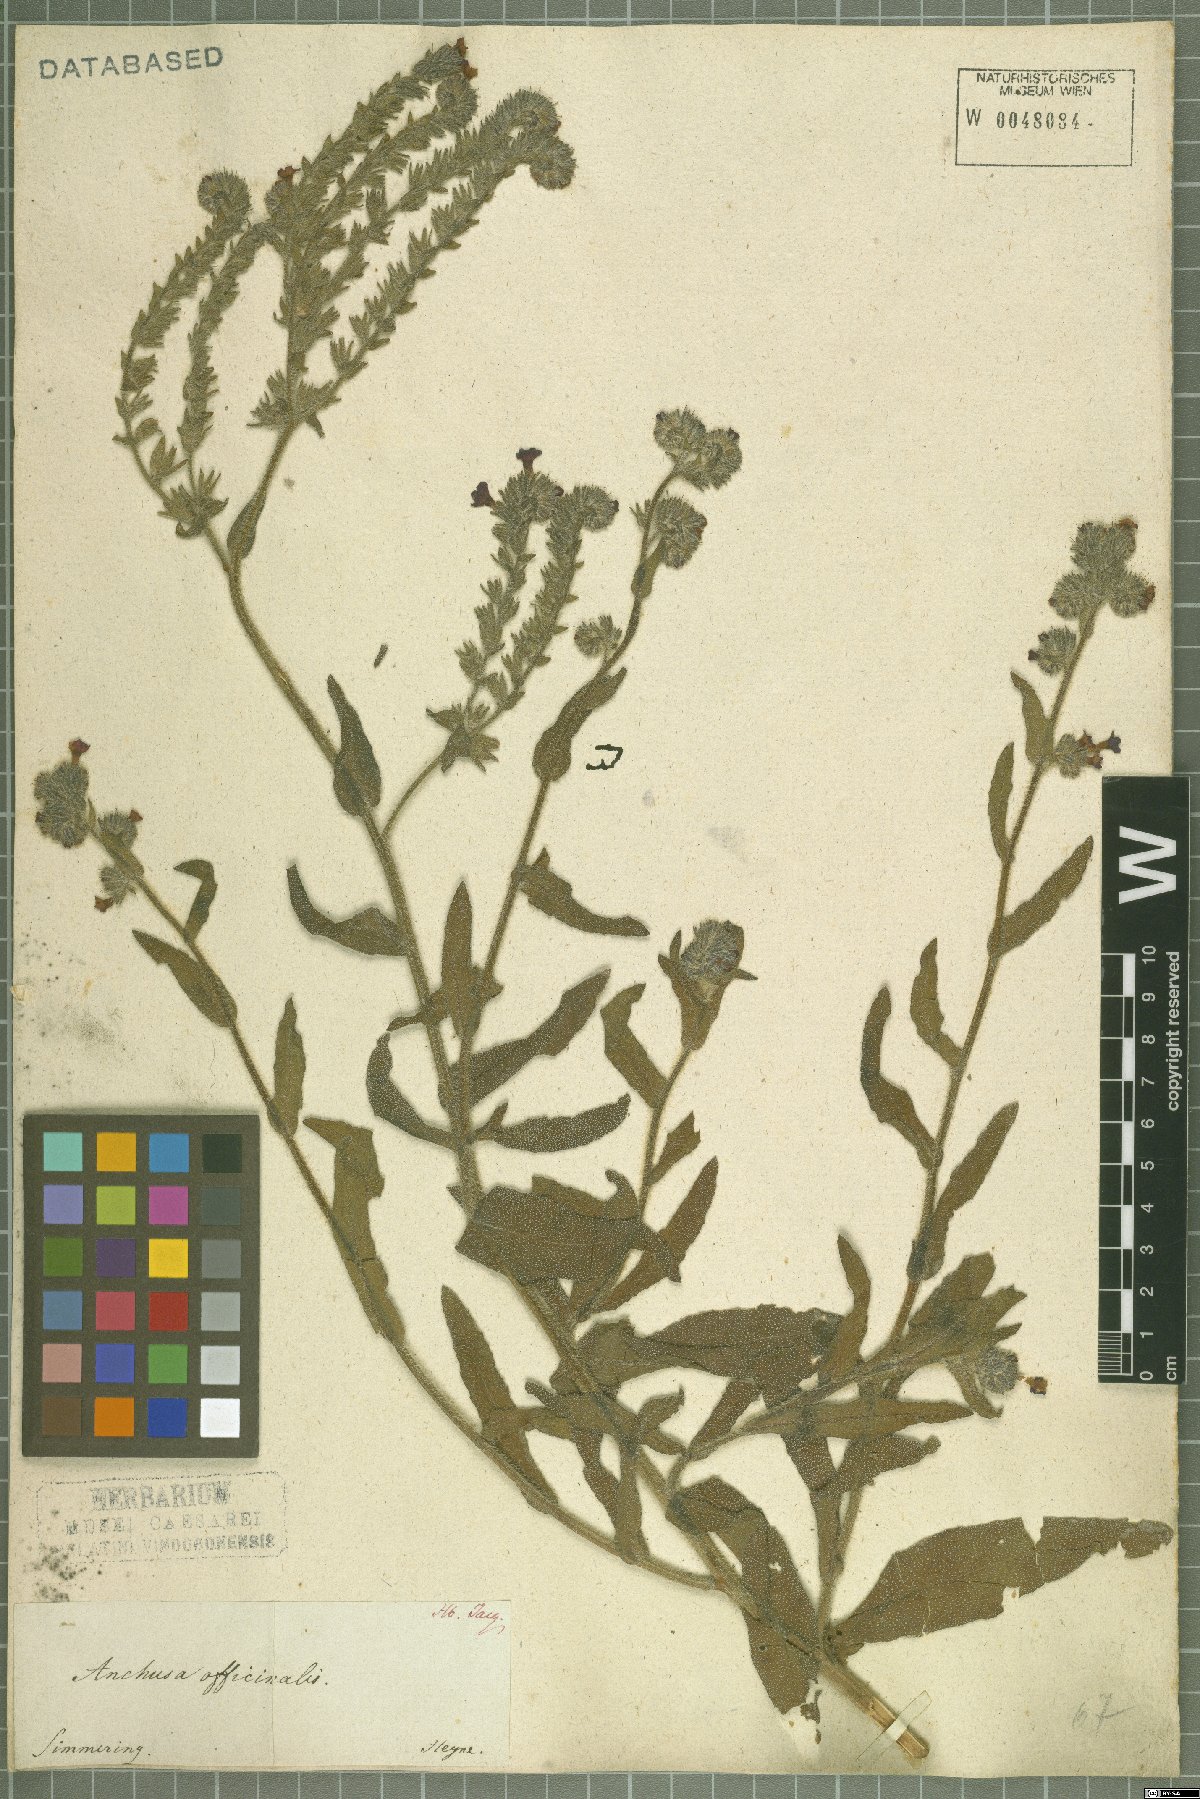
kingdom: Plantae
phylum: Tracheophyta
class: Magnoliopsida
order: Boraginales
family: Boraginaceae
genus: Anchusa
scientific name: Anchusa officinalis
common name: Alkanet
